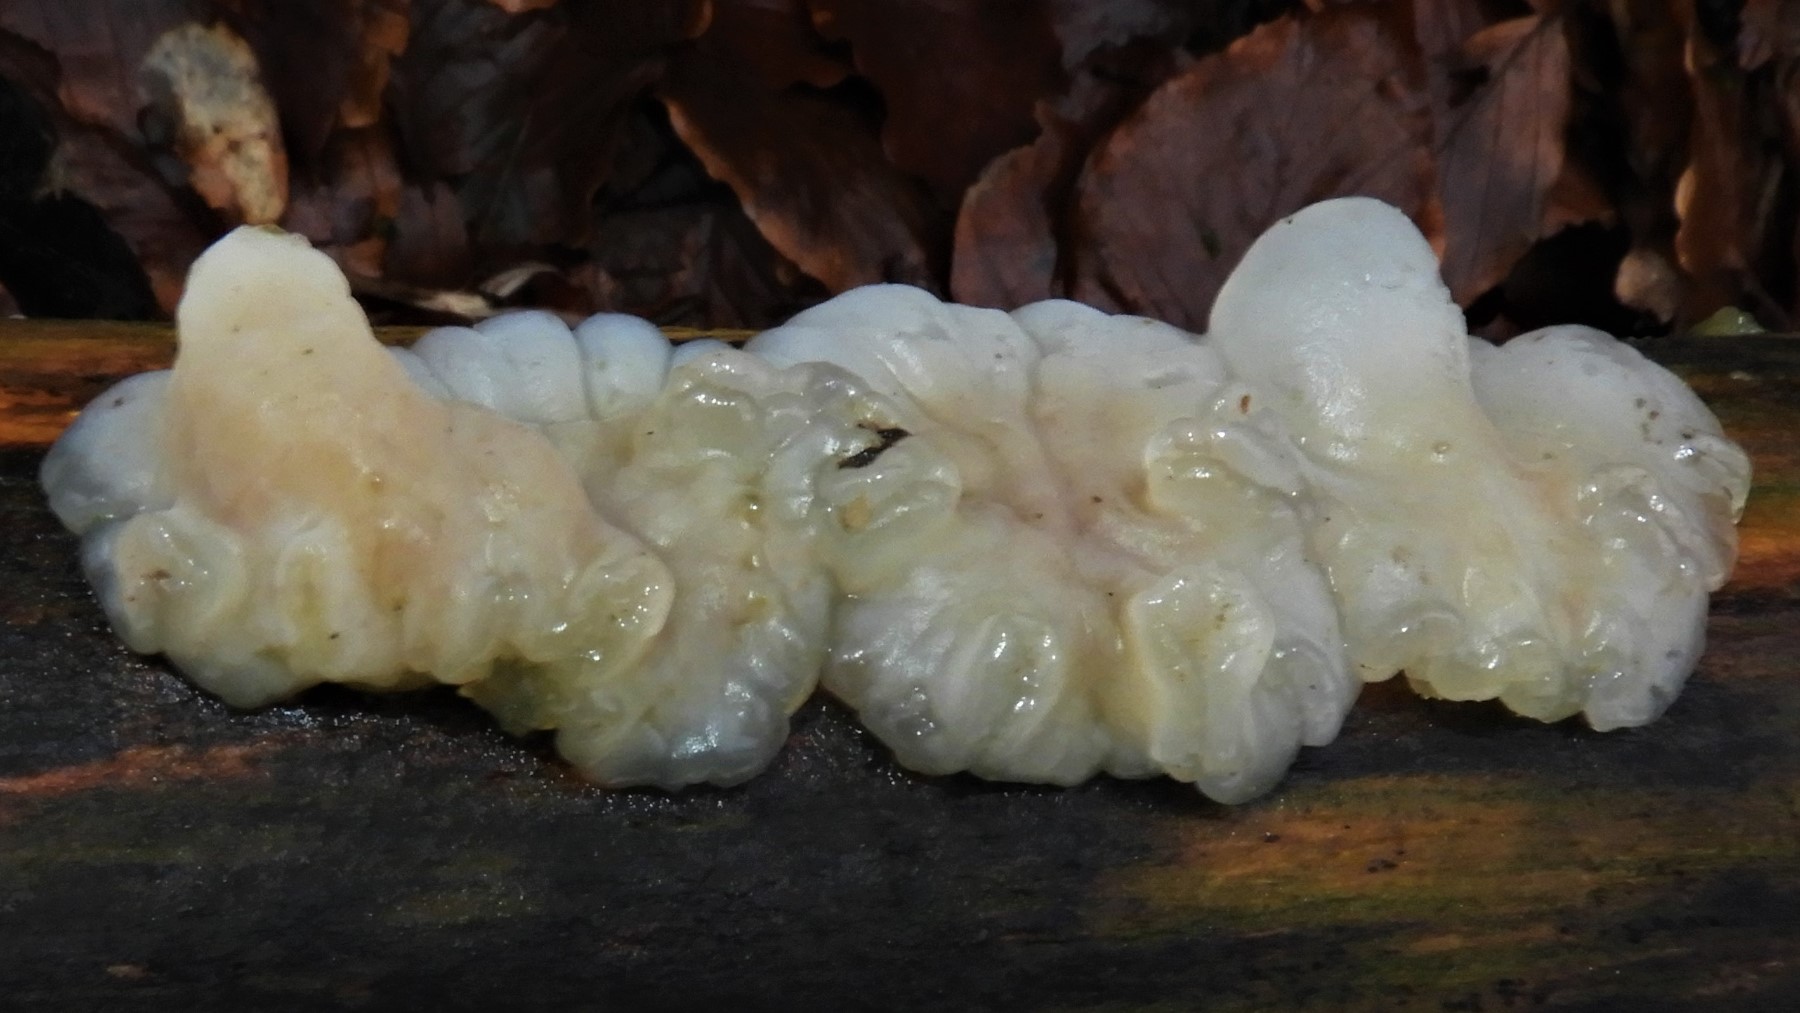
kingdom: Fungi
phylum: Basidiomycota
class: Agaricomycetes
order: Auriculariales
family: Auriculariaceae
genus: Exidia
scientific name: Exidia thuretiana
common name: hvidlig bævretop
